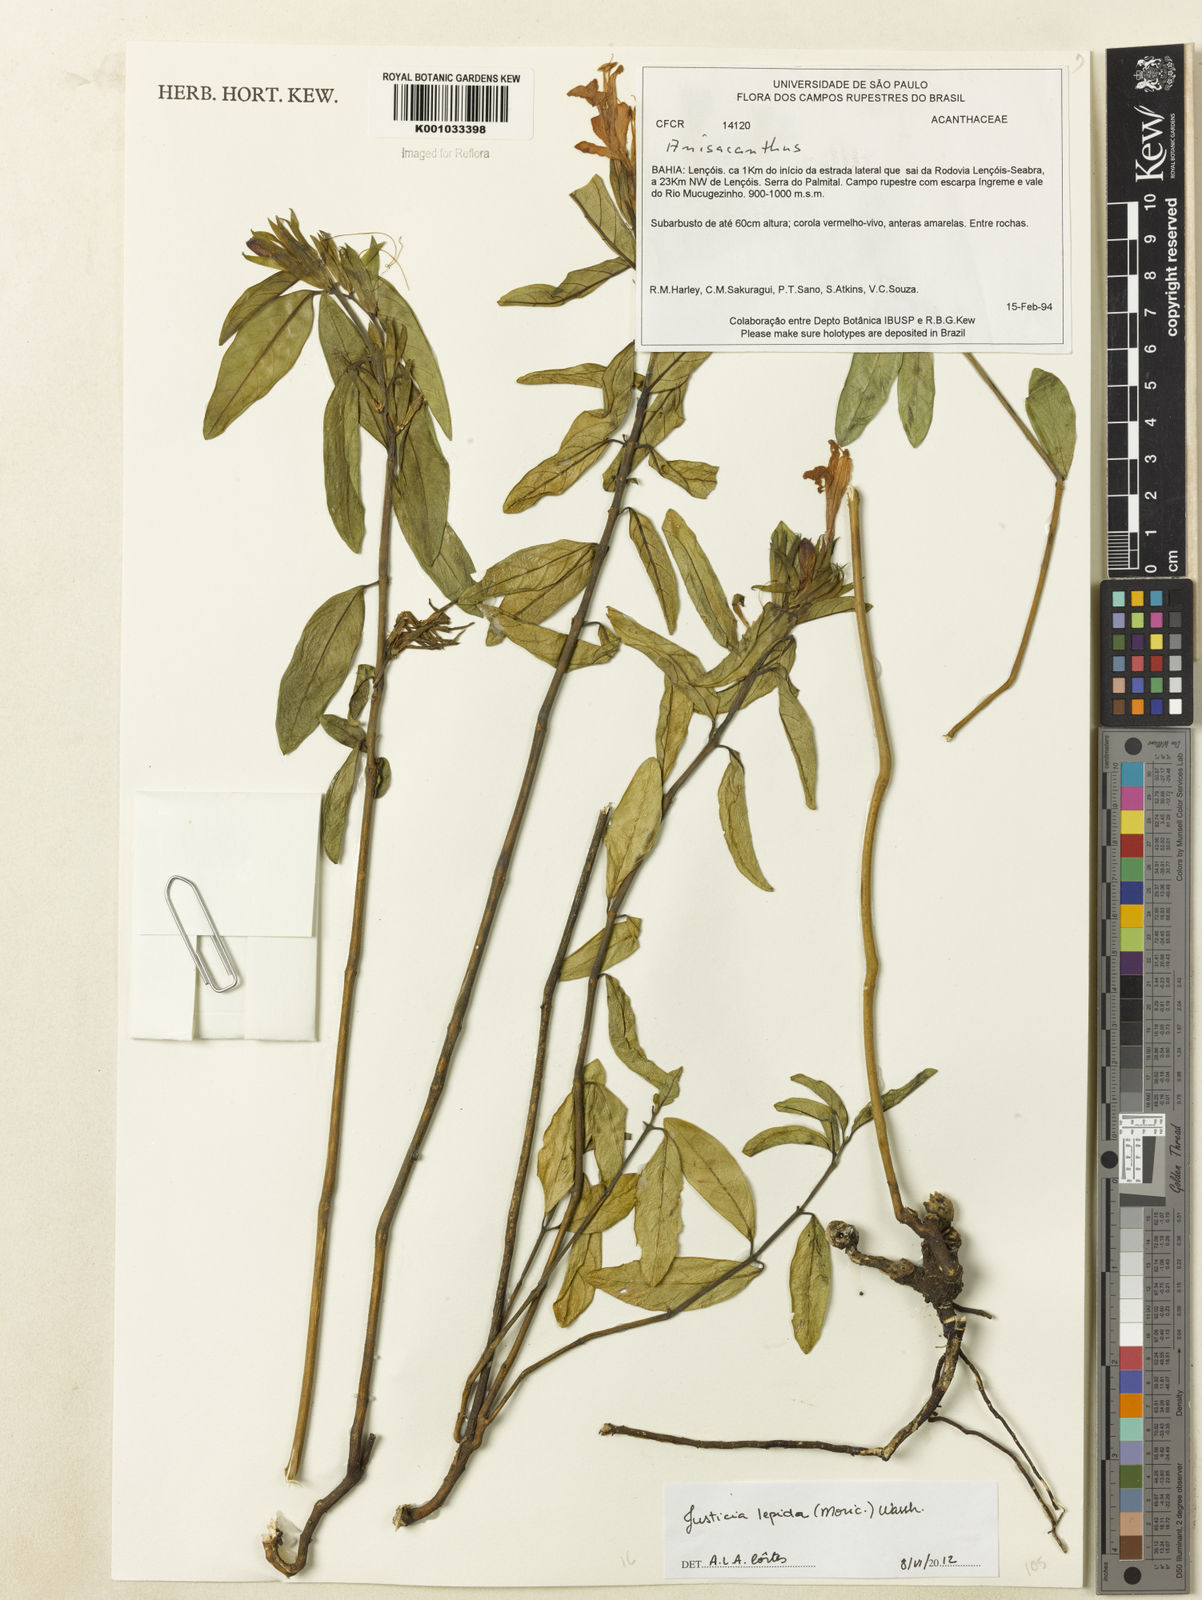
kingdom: Plantae
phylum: Tracheophyta
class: Magnoliopsida
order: Lamiales
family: Acanthaceae
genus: Justicia
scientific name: Justicia lepida
